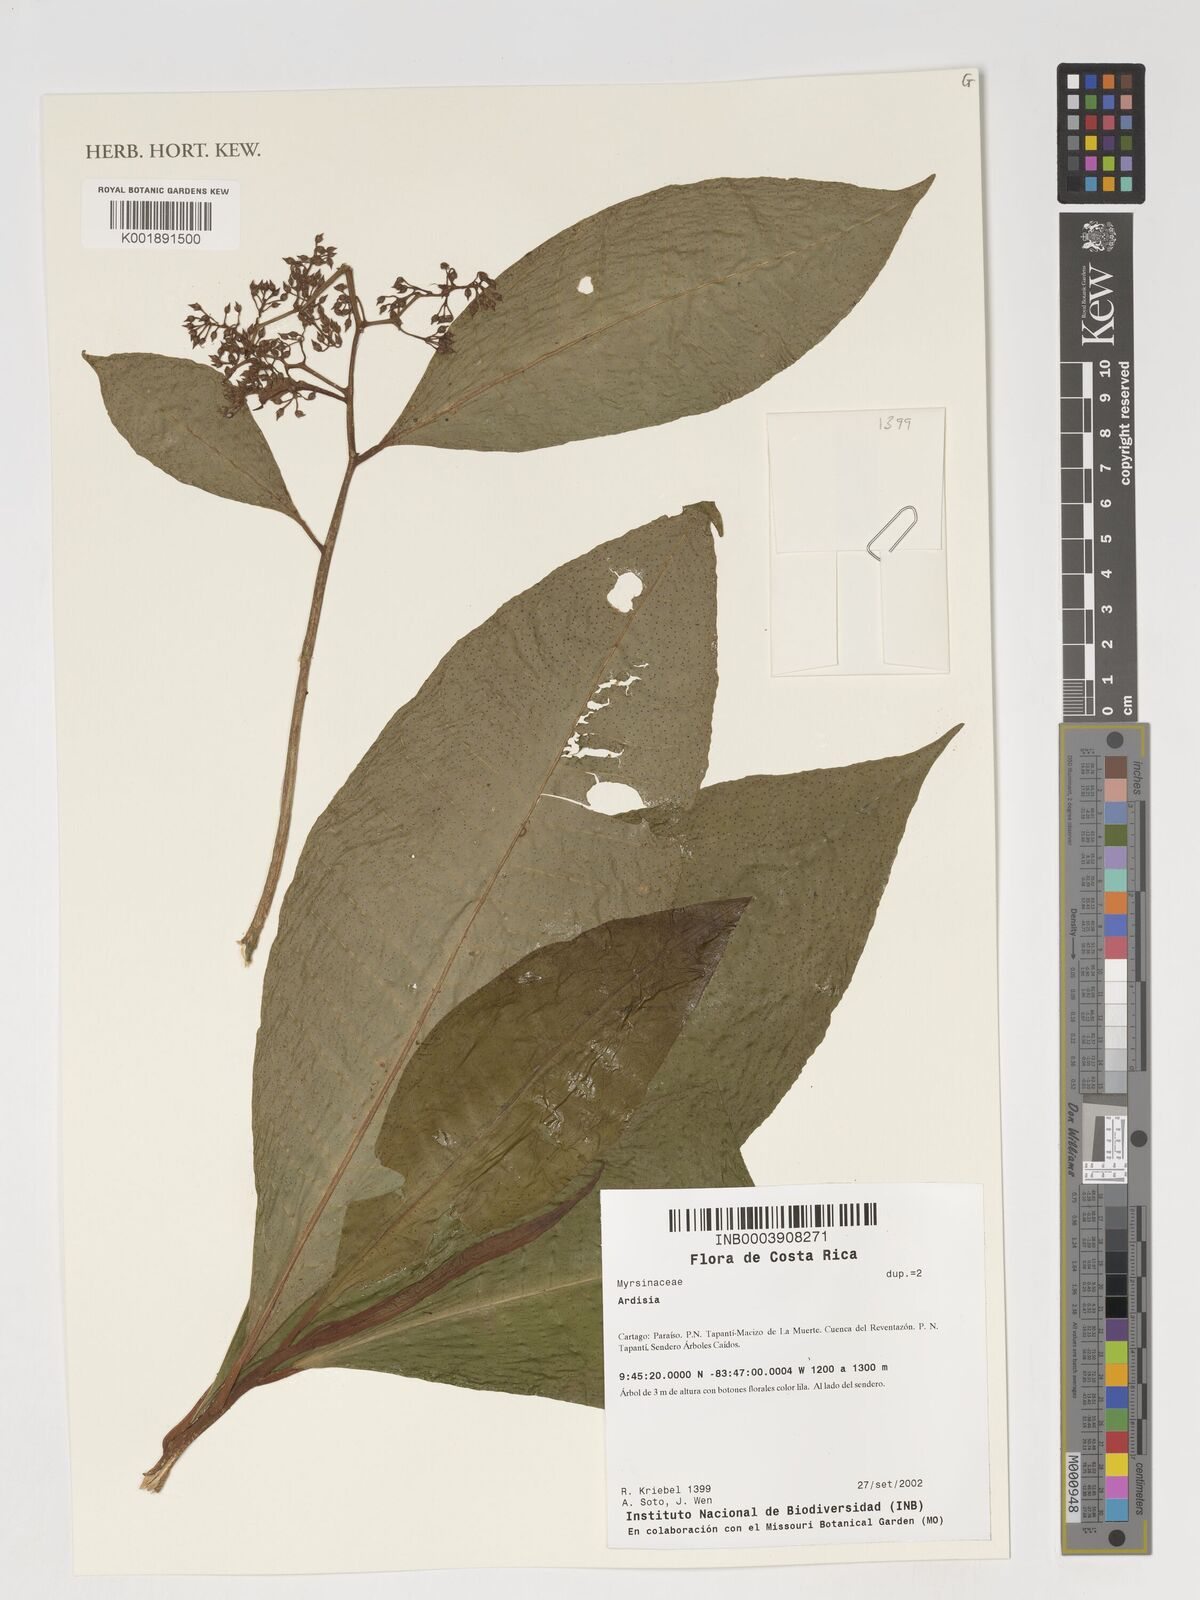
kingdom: Plantae
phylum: Tracheophyta
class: Magnoliopsida
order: Ericales
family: Primulaceae
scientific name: Primulaceae
